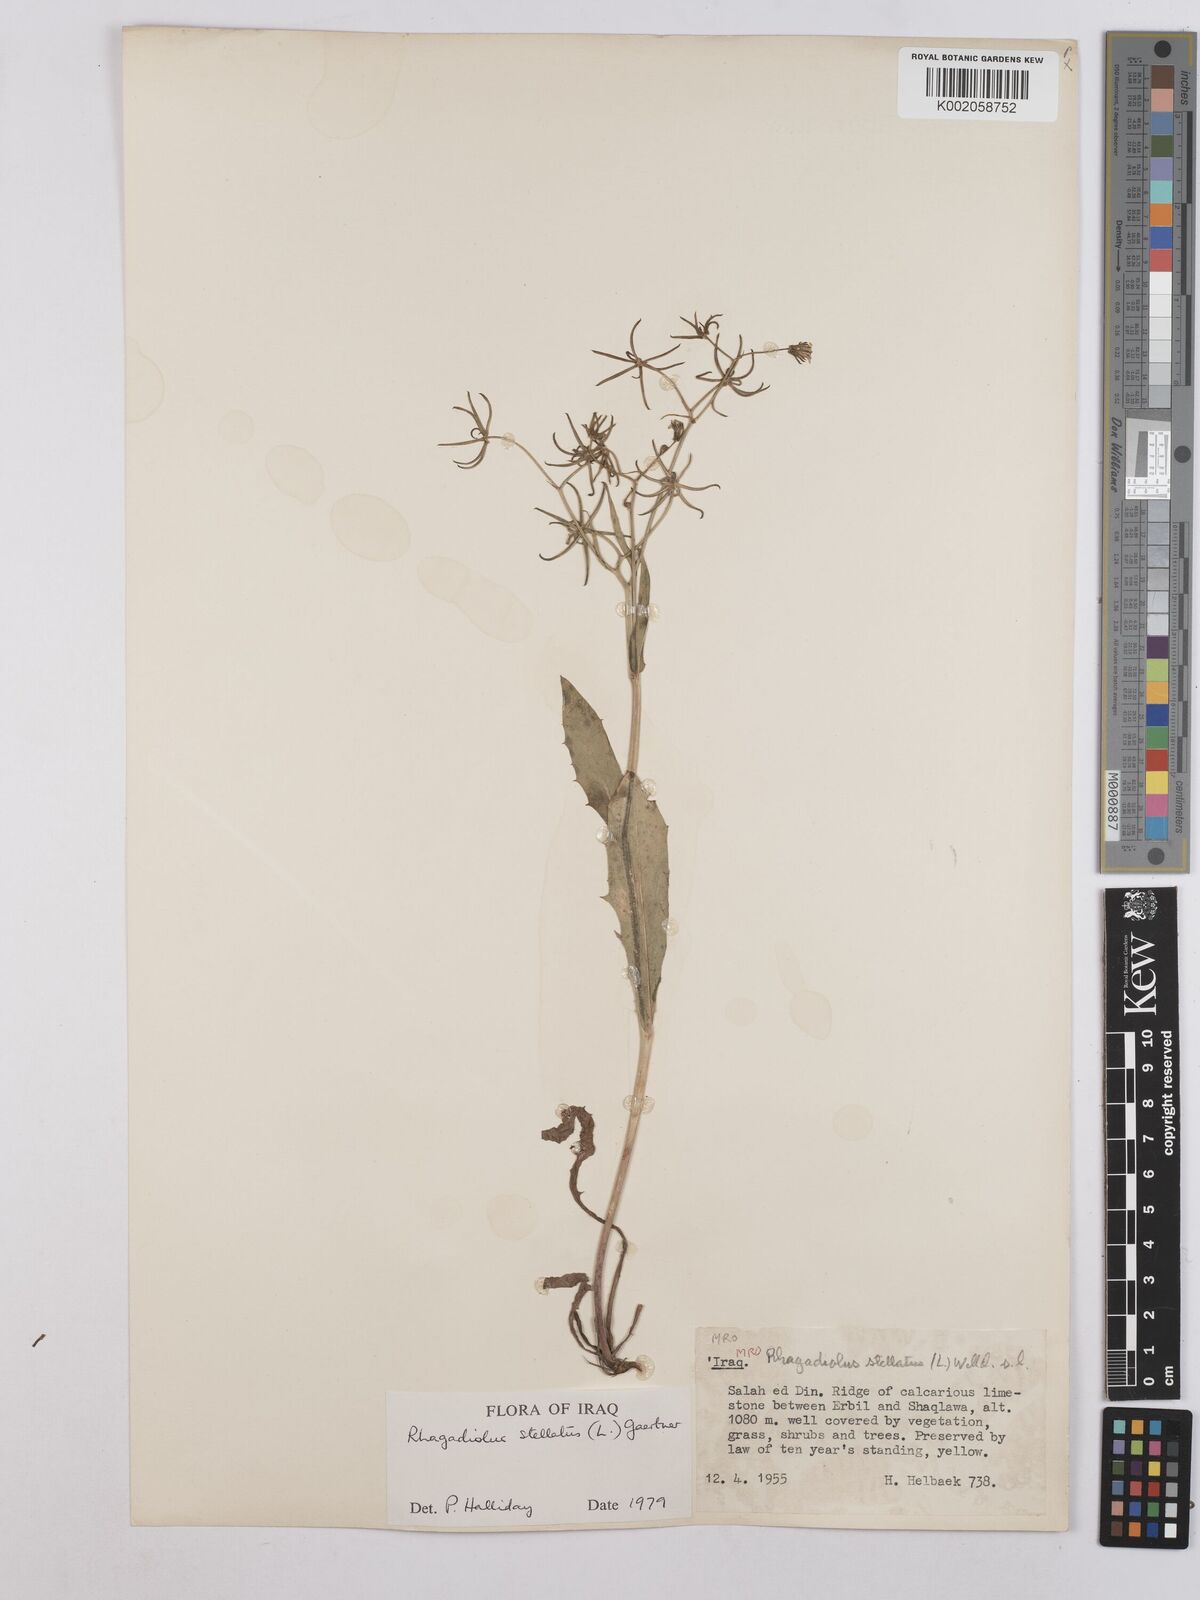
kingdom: Plantae
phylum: Tracheophyta
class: Magnoliopsida
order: Asterales
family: Asteraceae
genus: Rhagadiolus
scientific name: Rhagadiolus stellatus
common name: Star hawkbit
